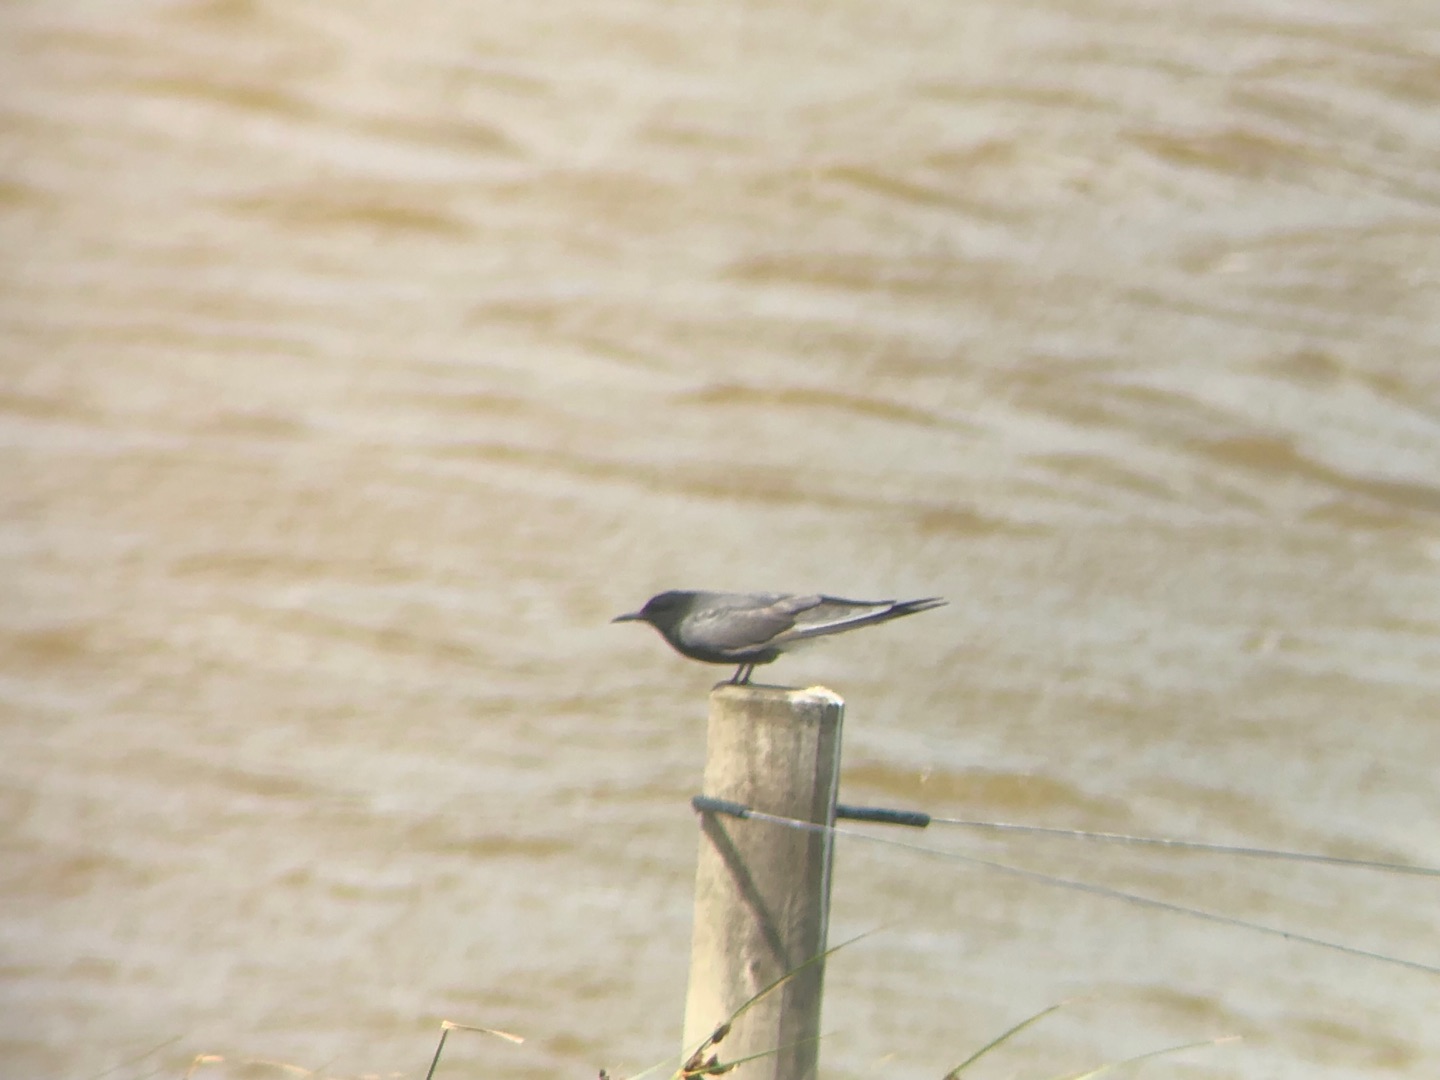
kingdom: Animalia
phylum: Chordata
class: Aves
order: Charadriiformes
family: Laridae
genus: Chlidonias
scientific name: Chlidonias niger
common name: Sortterne
